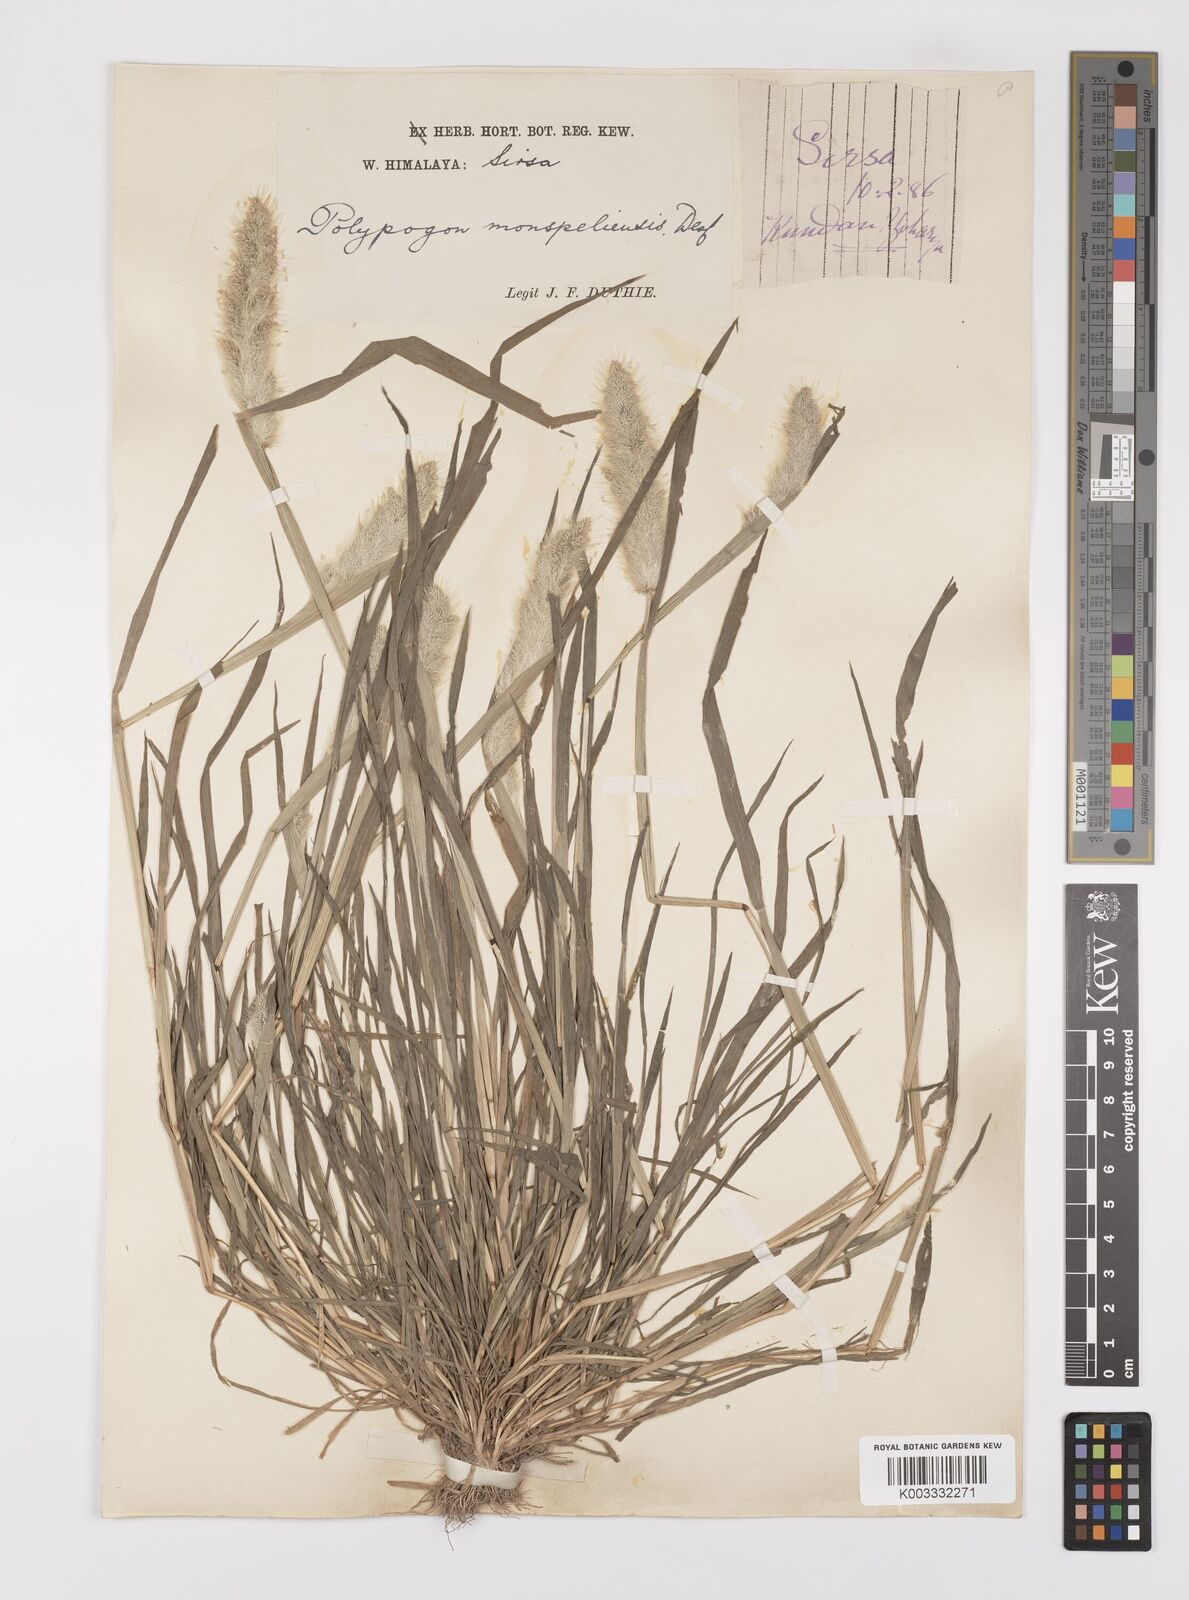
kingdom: Plantae
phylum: Tracheophyta
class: Liliopsida
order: Poales
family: Poaceae
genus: Polypogon
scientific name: Polypogon monspeliensis
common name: Annual rabbitsfoot grass
